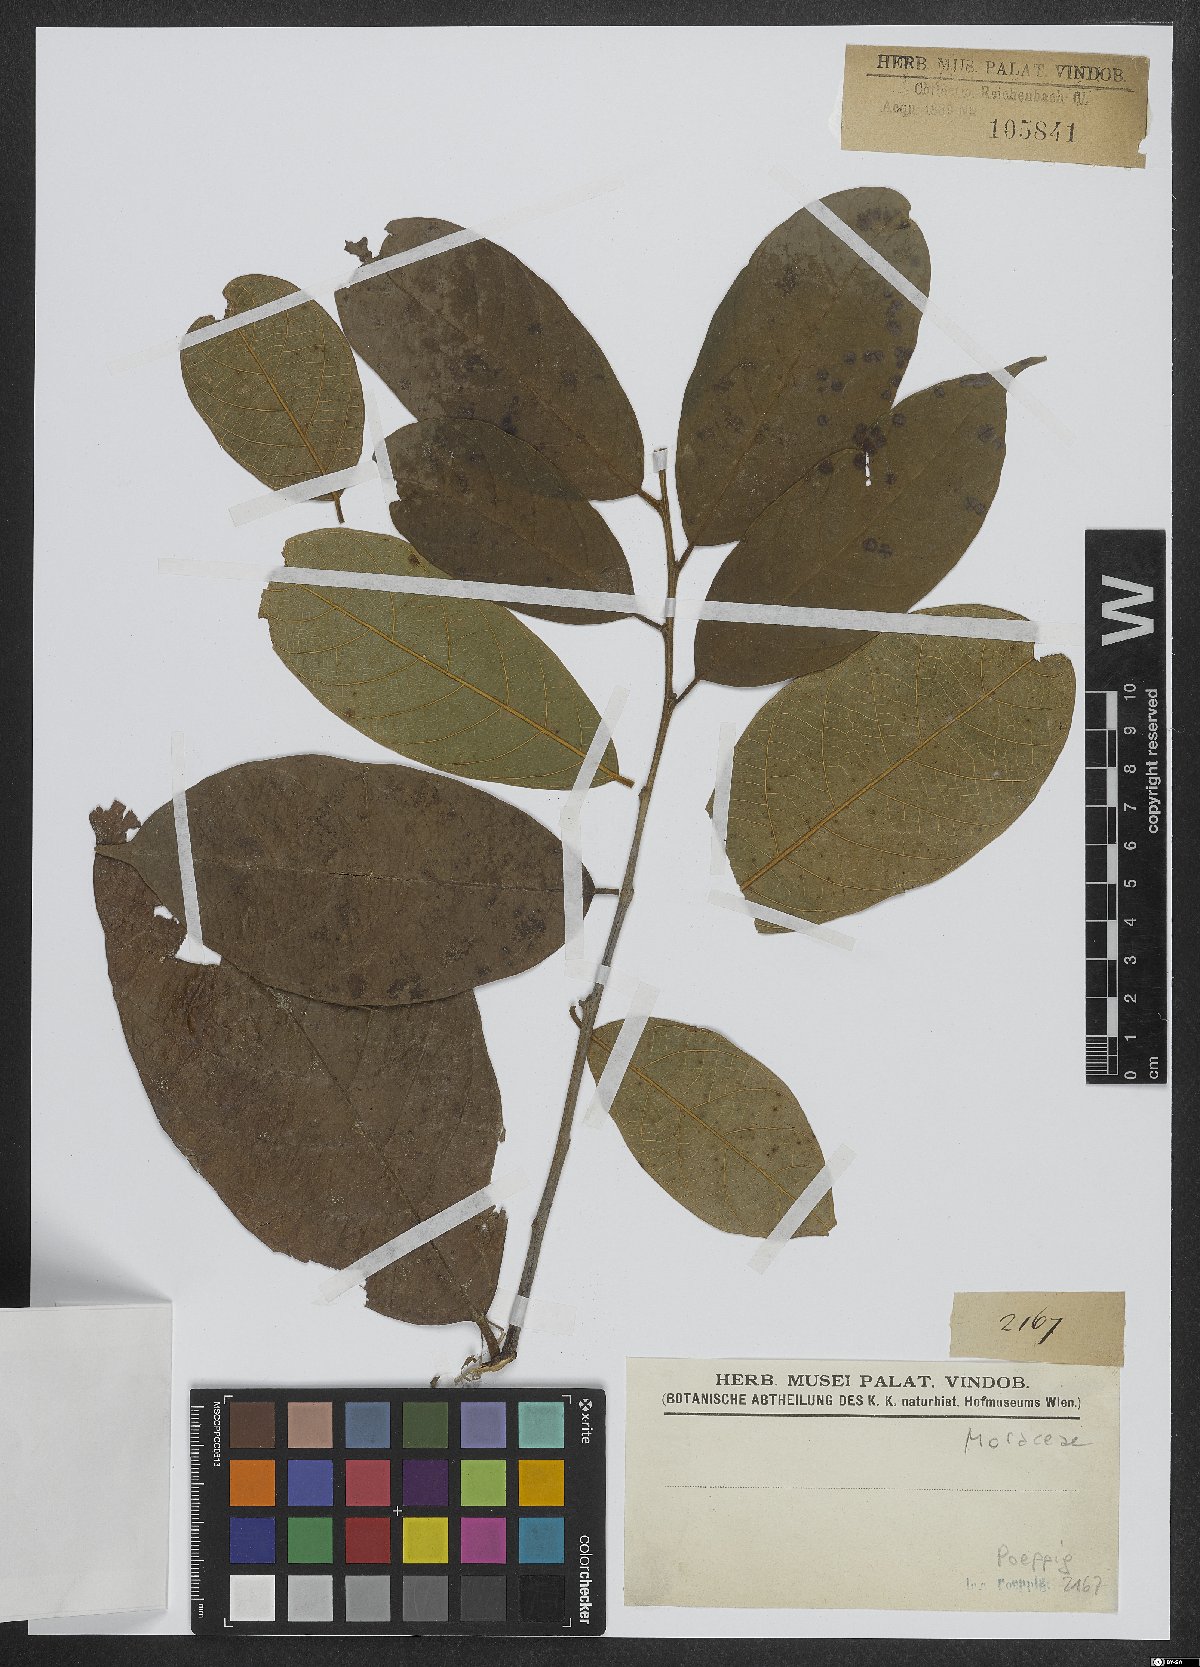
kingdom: Plantae
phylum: Tracheophyta
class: Magnoliopsida
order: Rosales
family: Moraceae
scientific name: Moraceae
